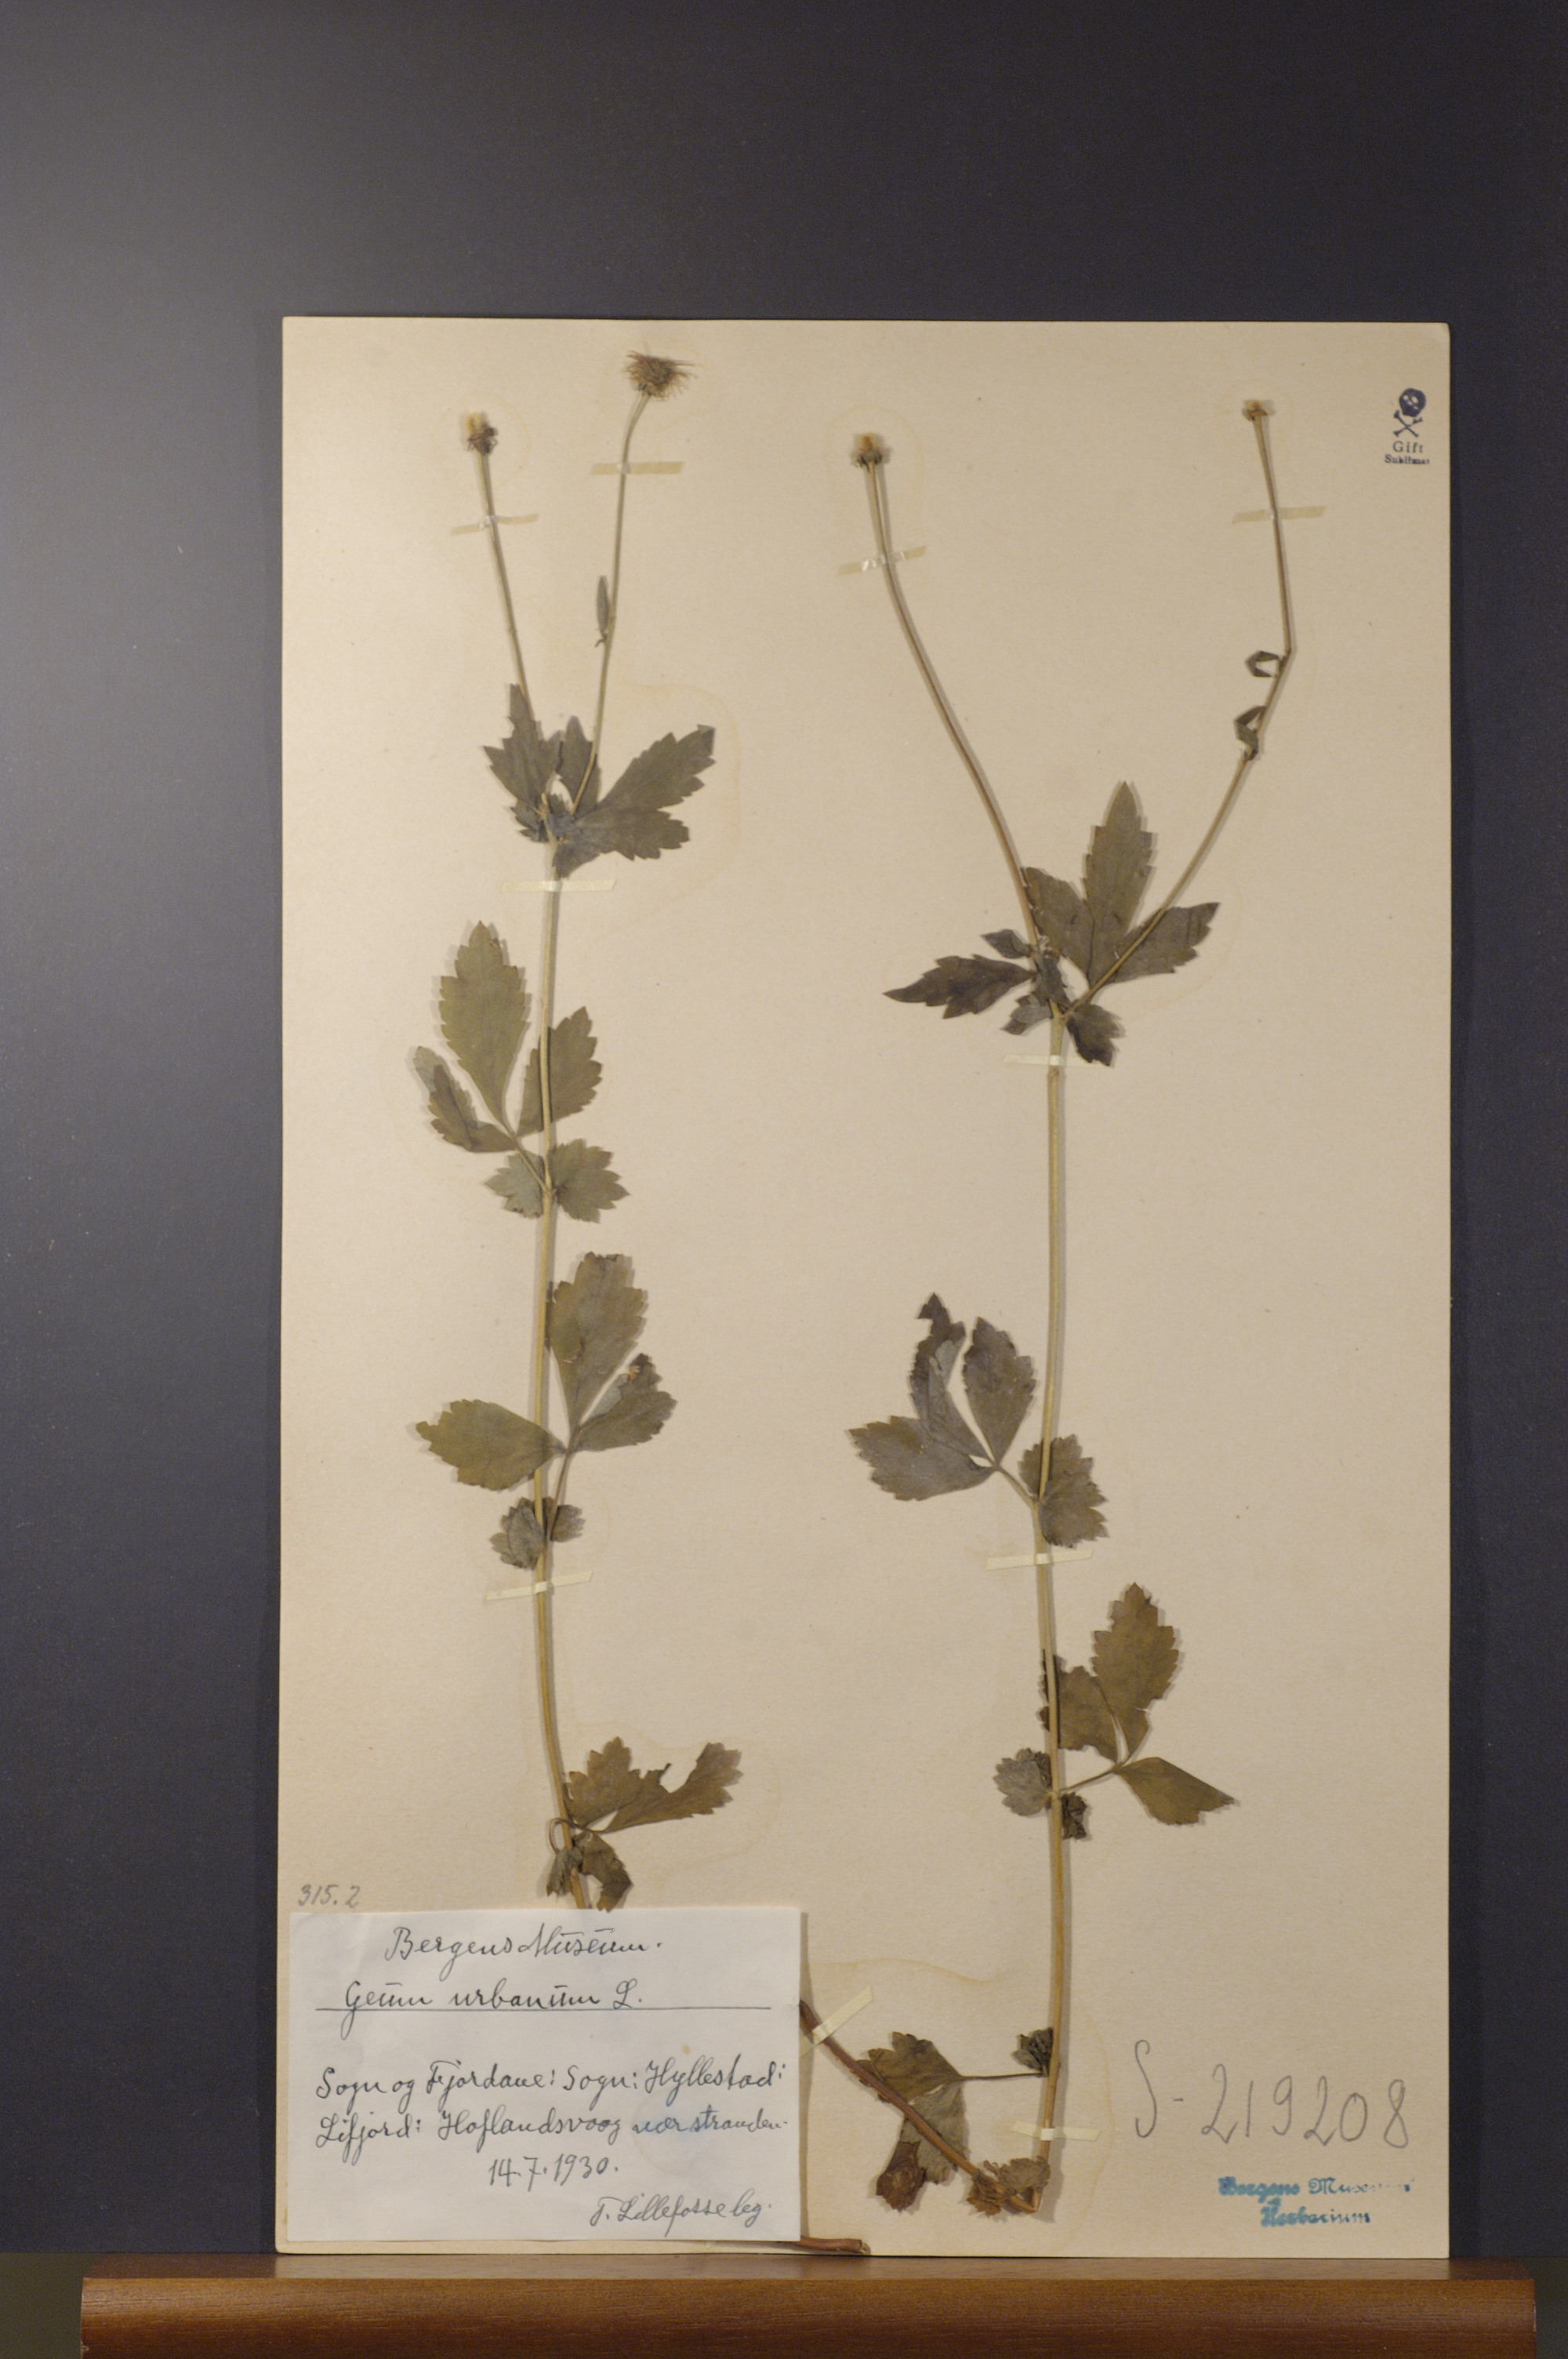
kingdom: Plantae
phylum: Tracheophyta
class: Magnoliopsida
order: Rosales
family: Rosaceae
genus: Geum
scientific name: Geum urbanum
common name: Wood avens
